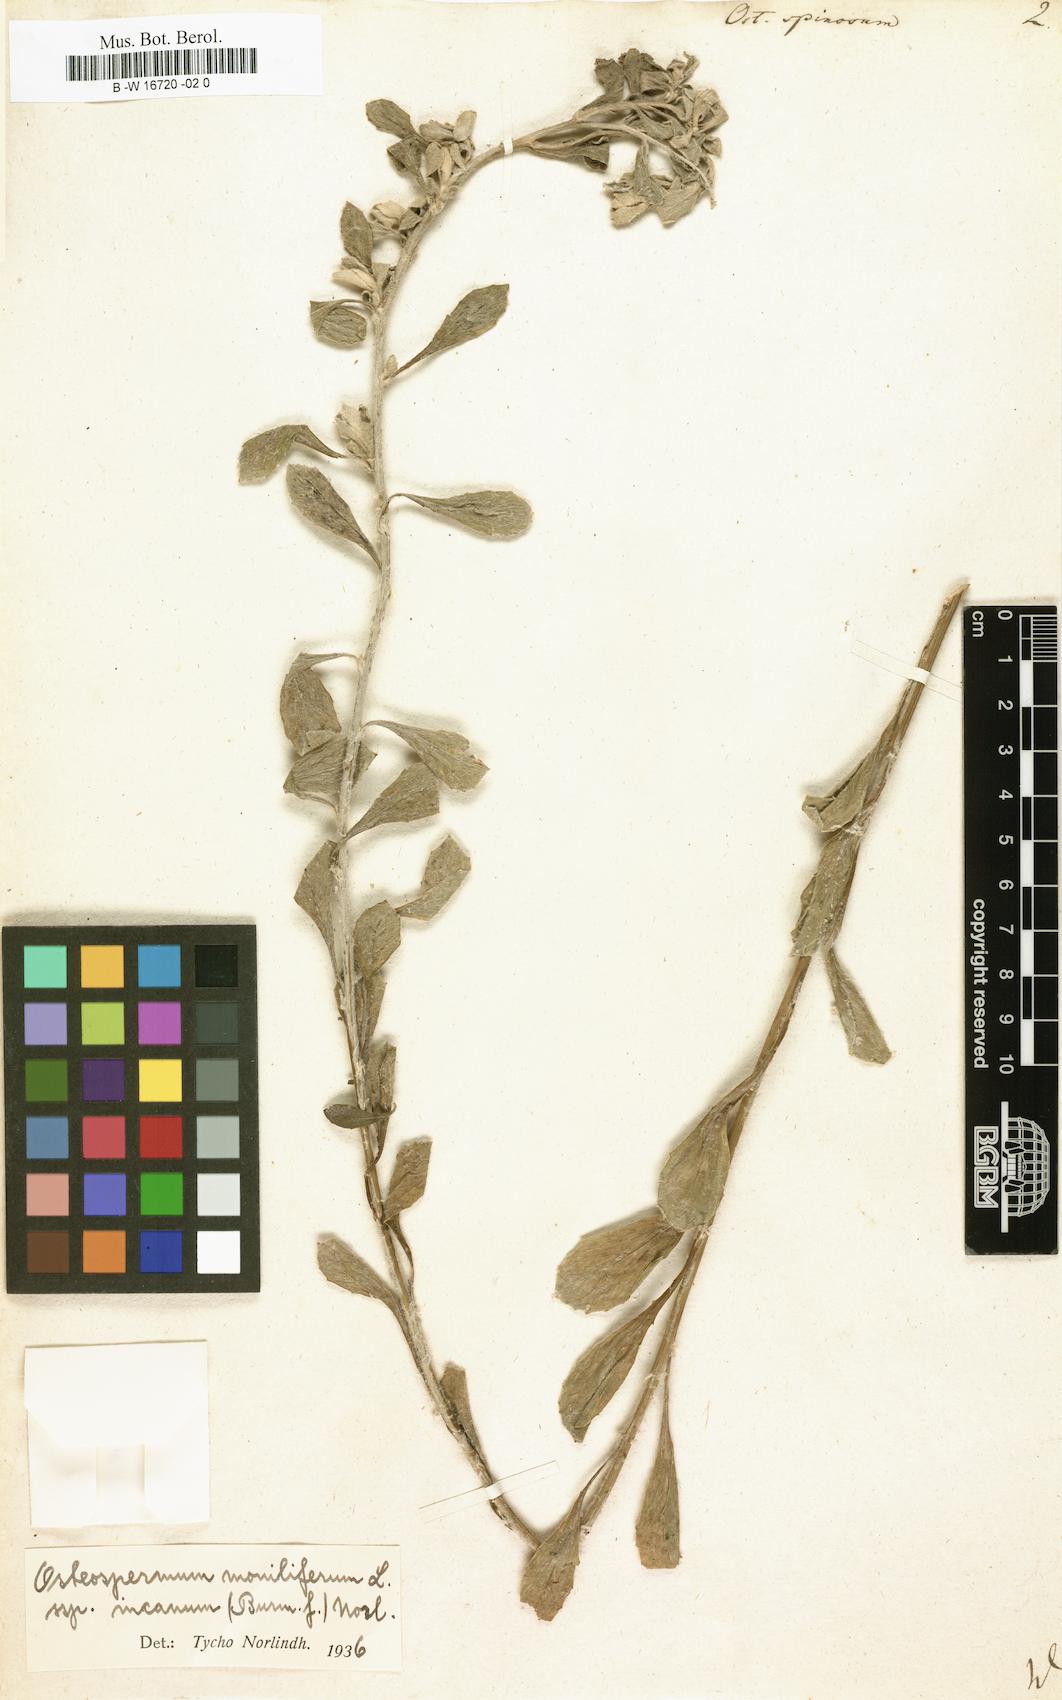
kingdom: Plantae
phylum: Tracheophyta
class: Magnoliopsida
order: Asterales
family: Asteraceae
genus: Osteospermum
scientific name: Osteospermum spinosum
